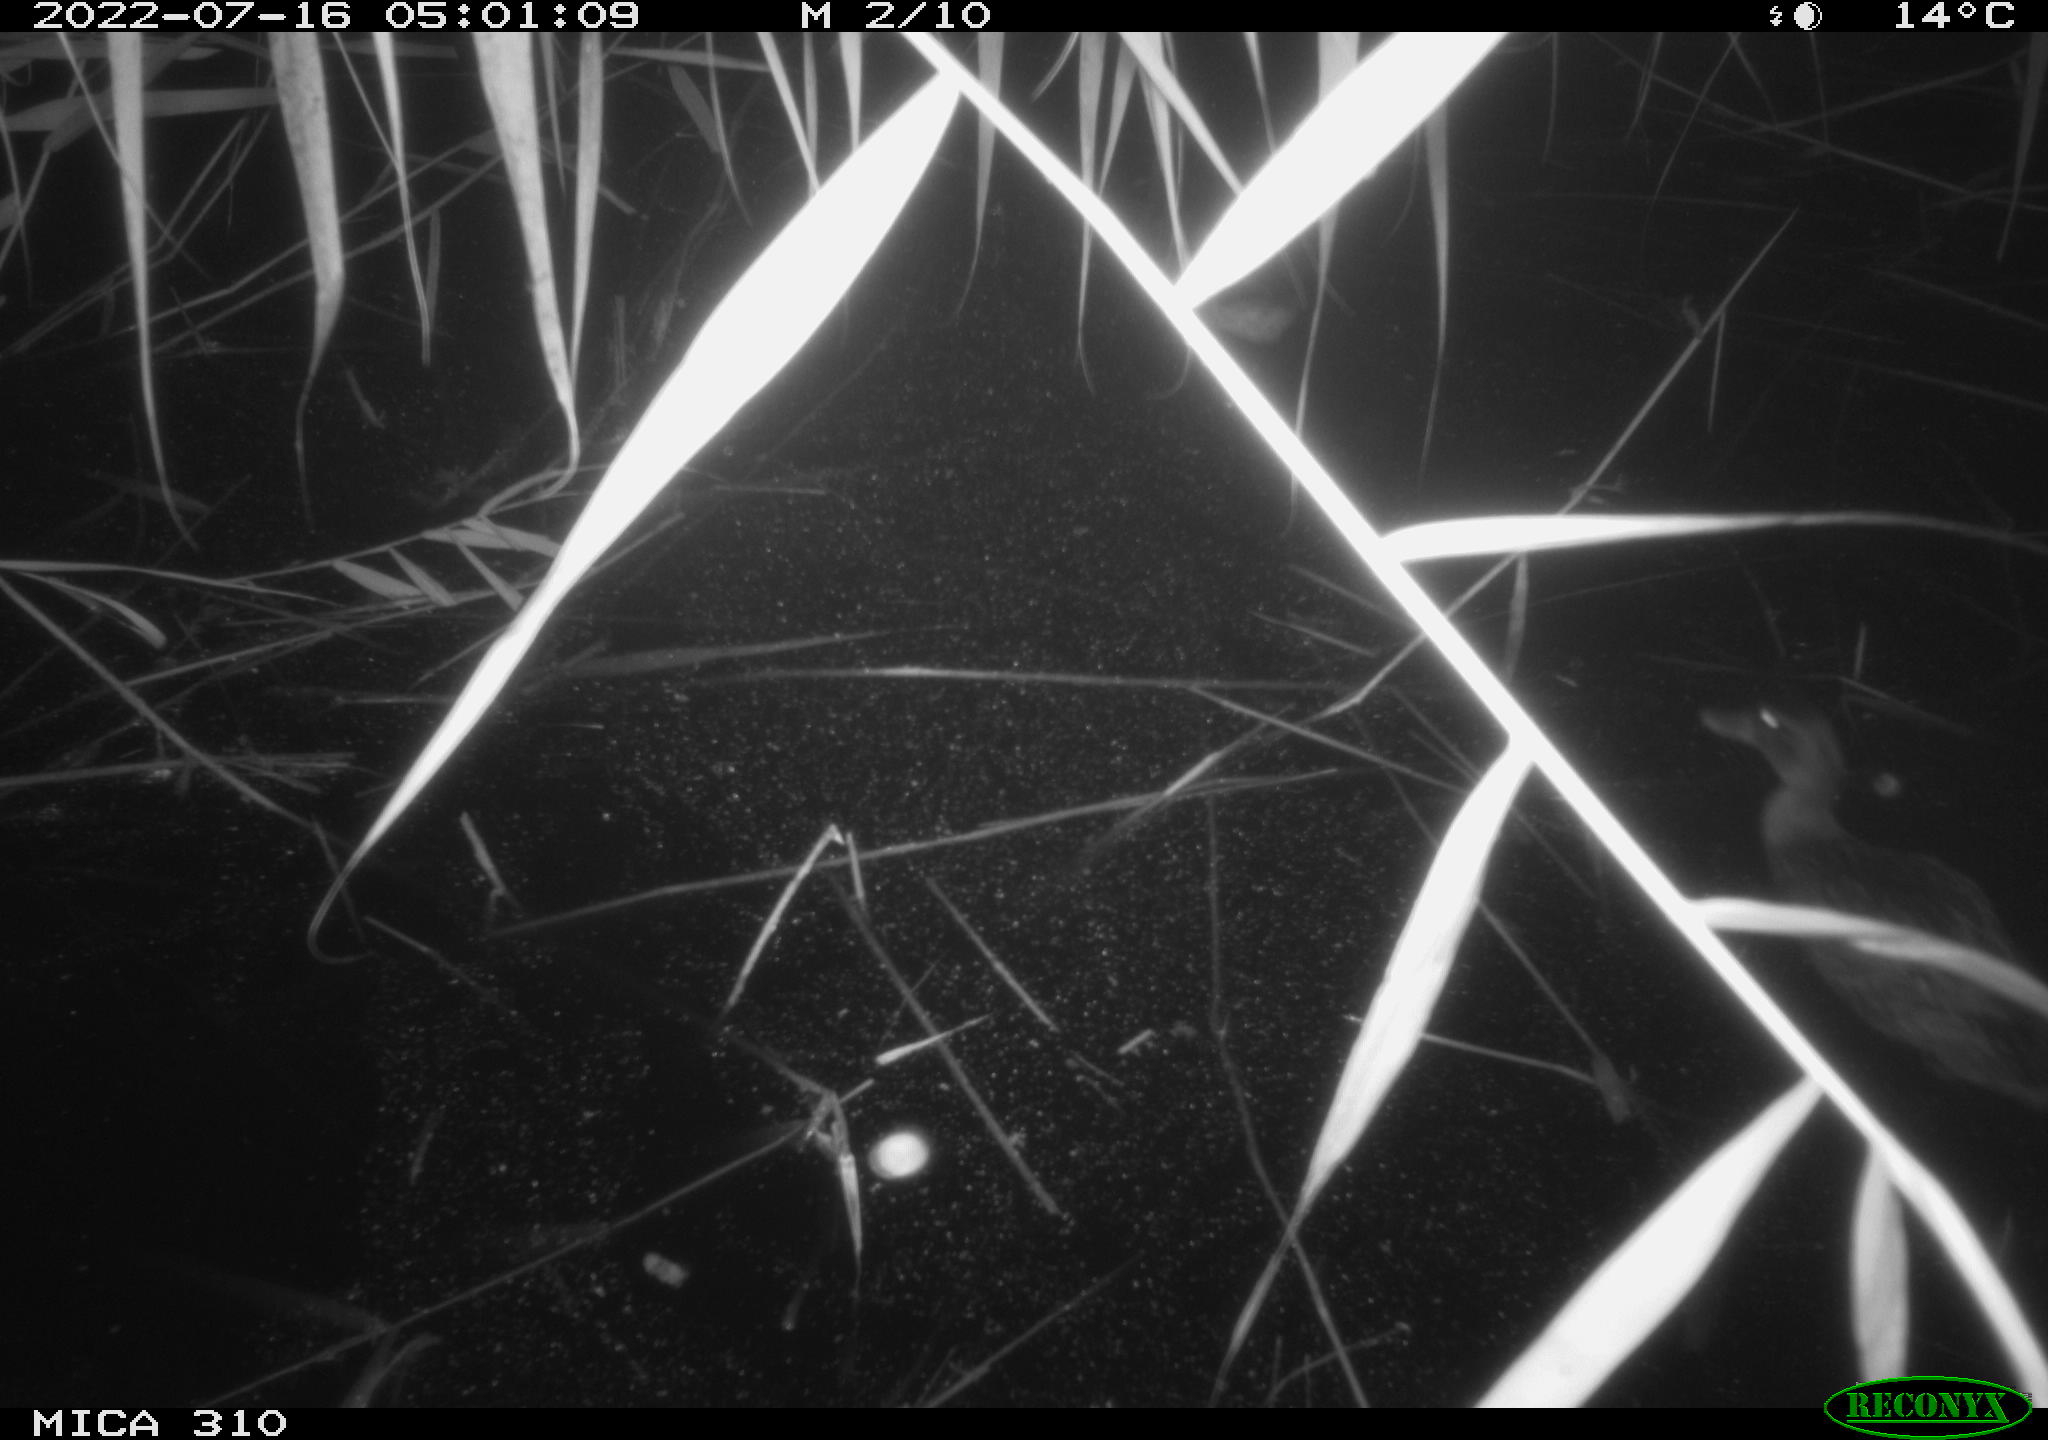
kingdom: Animalia
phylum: Chordata
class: Aves
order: Anseriformes
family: Anatidae
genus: Anas
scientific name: Anas platyrhynchos
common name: Mallard
